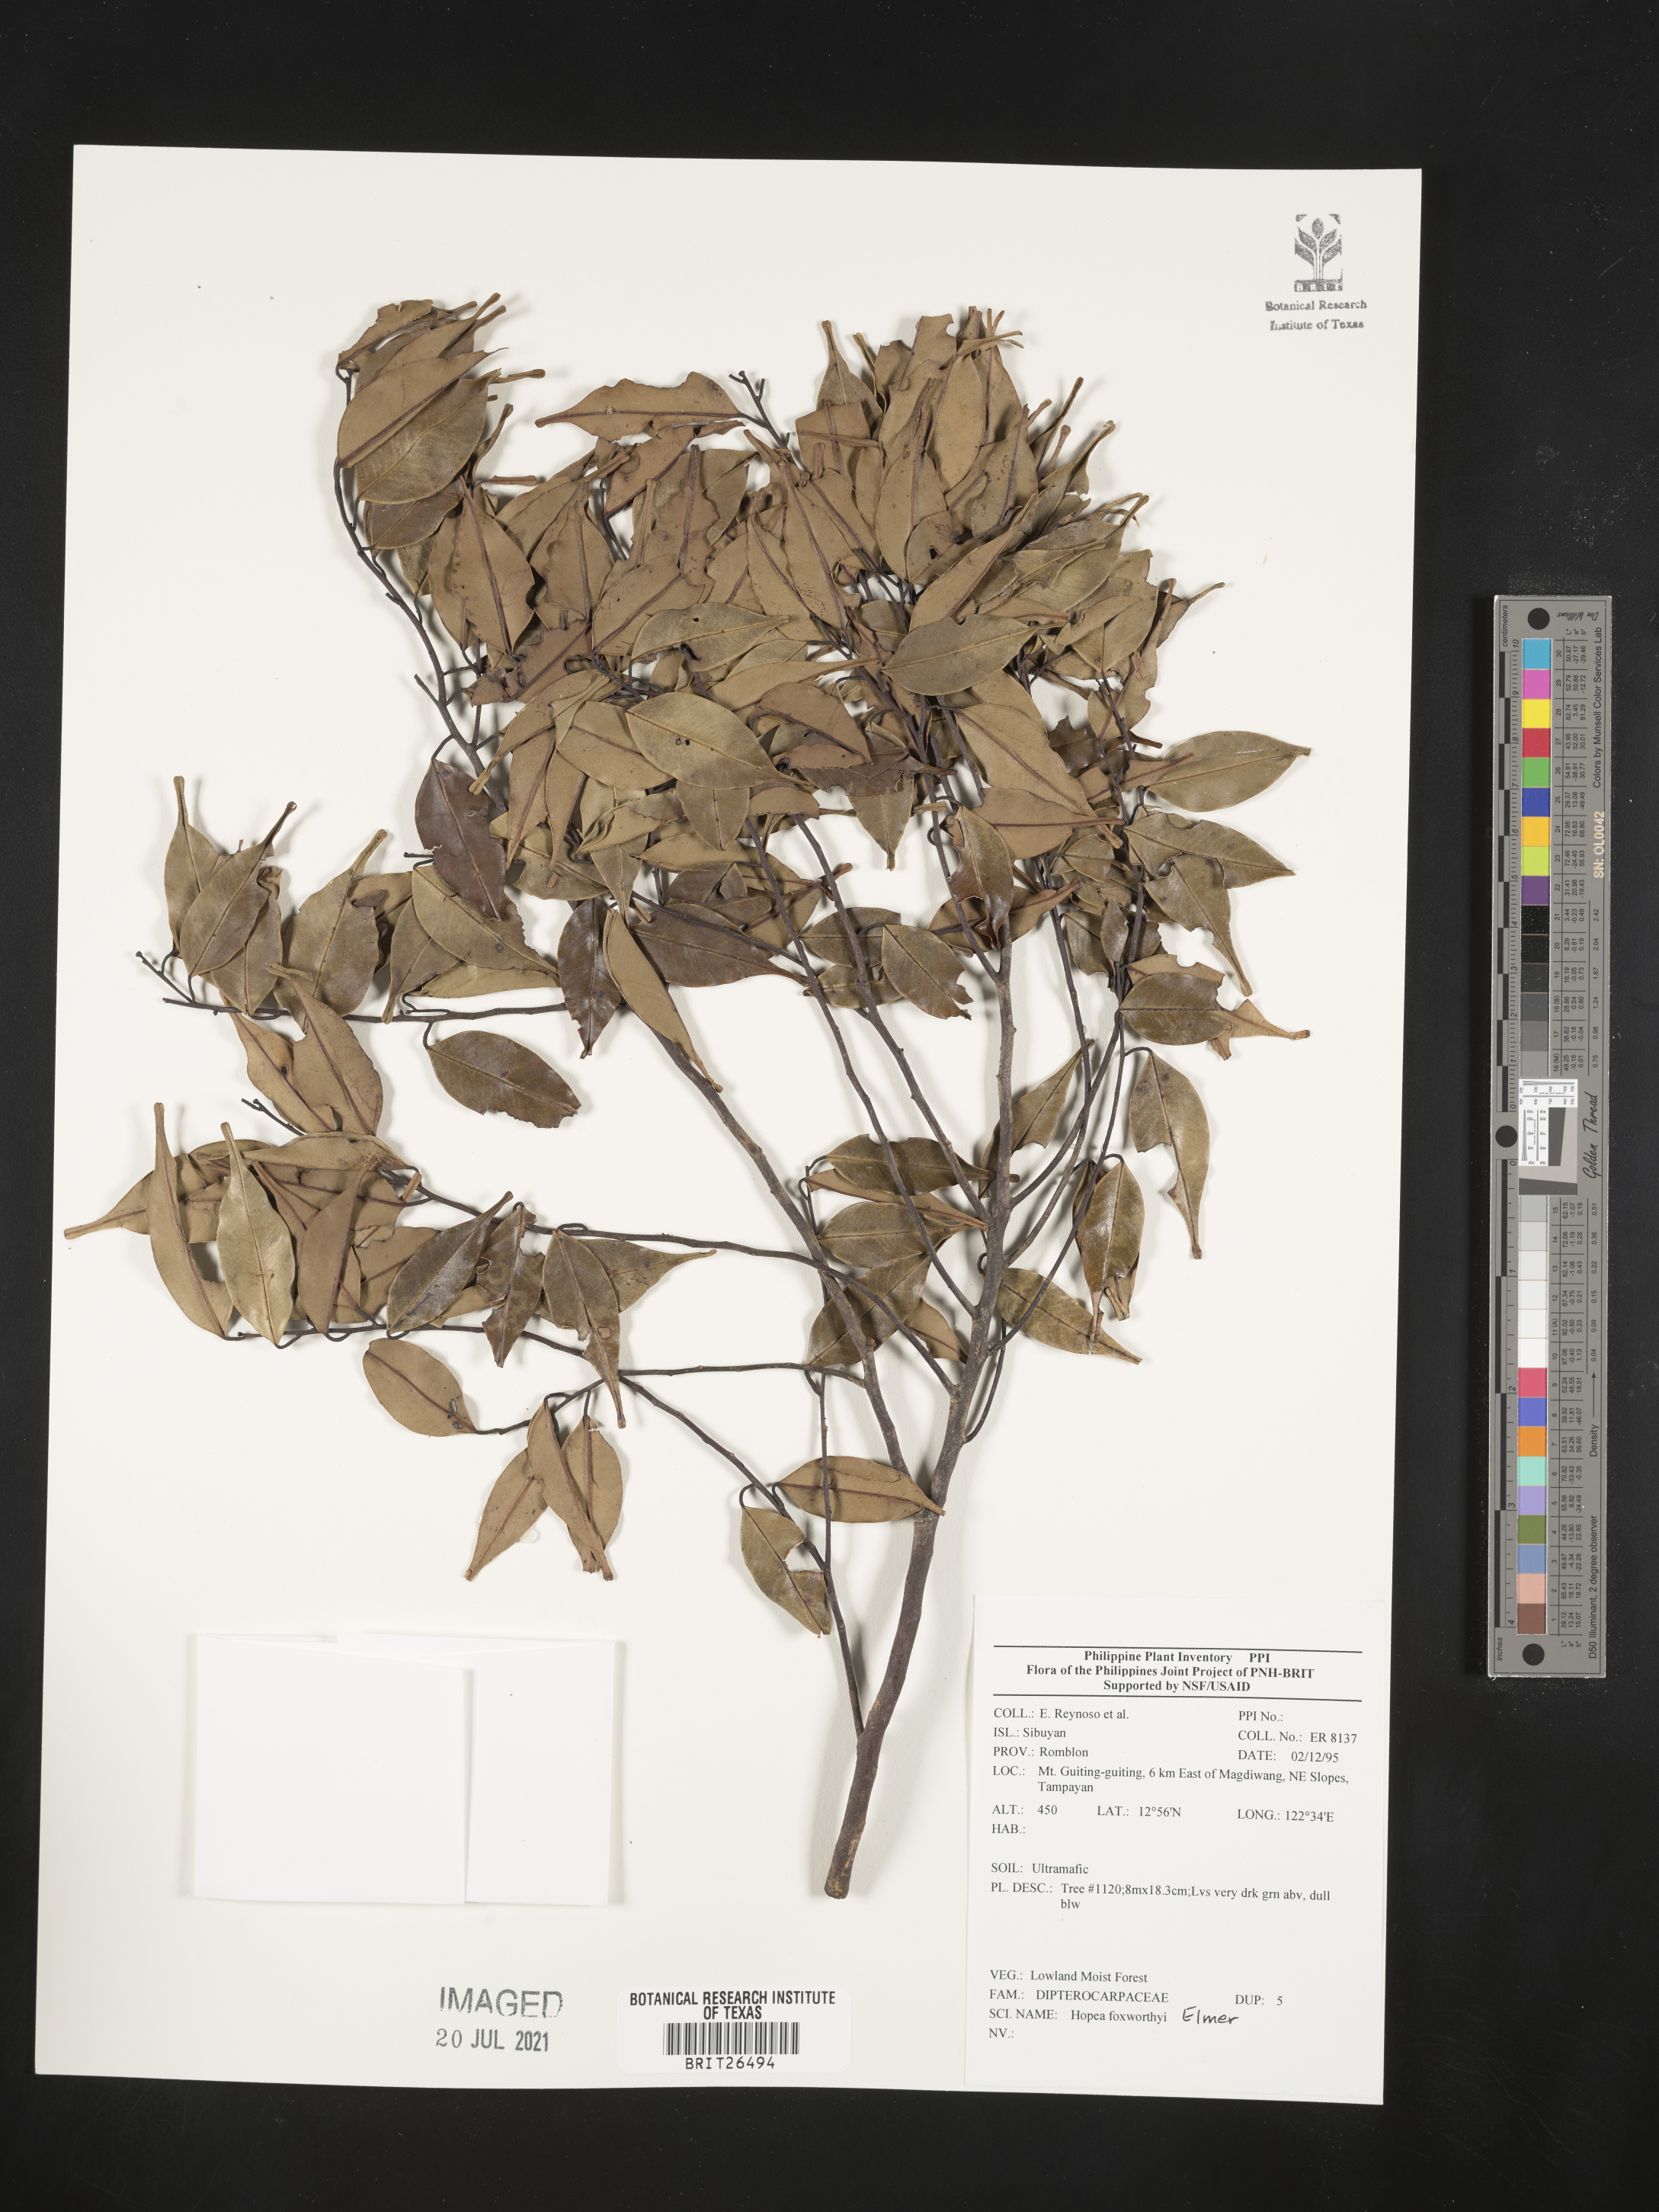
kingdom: Plantae
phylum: Tracheophyta
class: Magnoliopsida
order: Malvales
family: Dipterocarpaceae
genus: Hopea
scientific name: Hopea foxworthyi
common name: Dalingdingan
